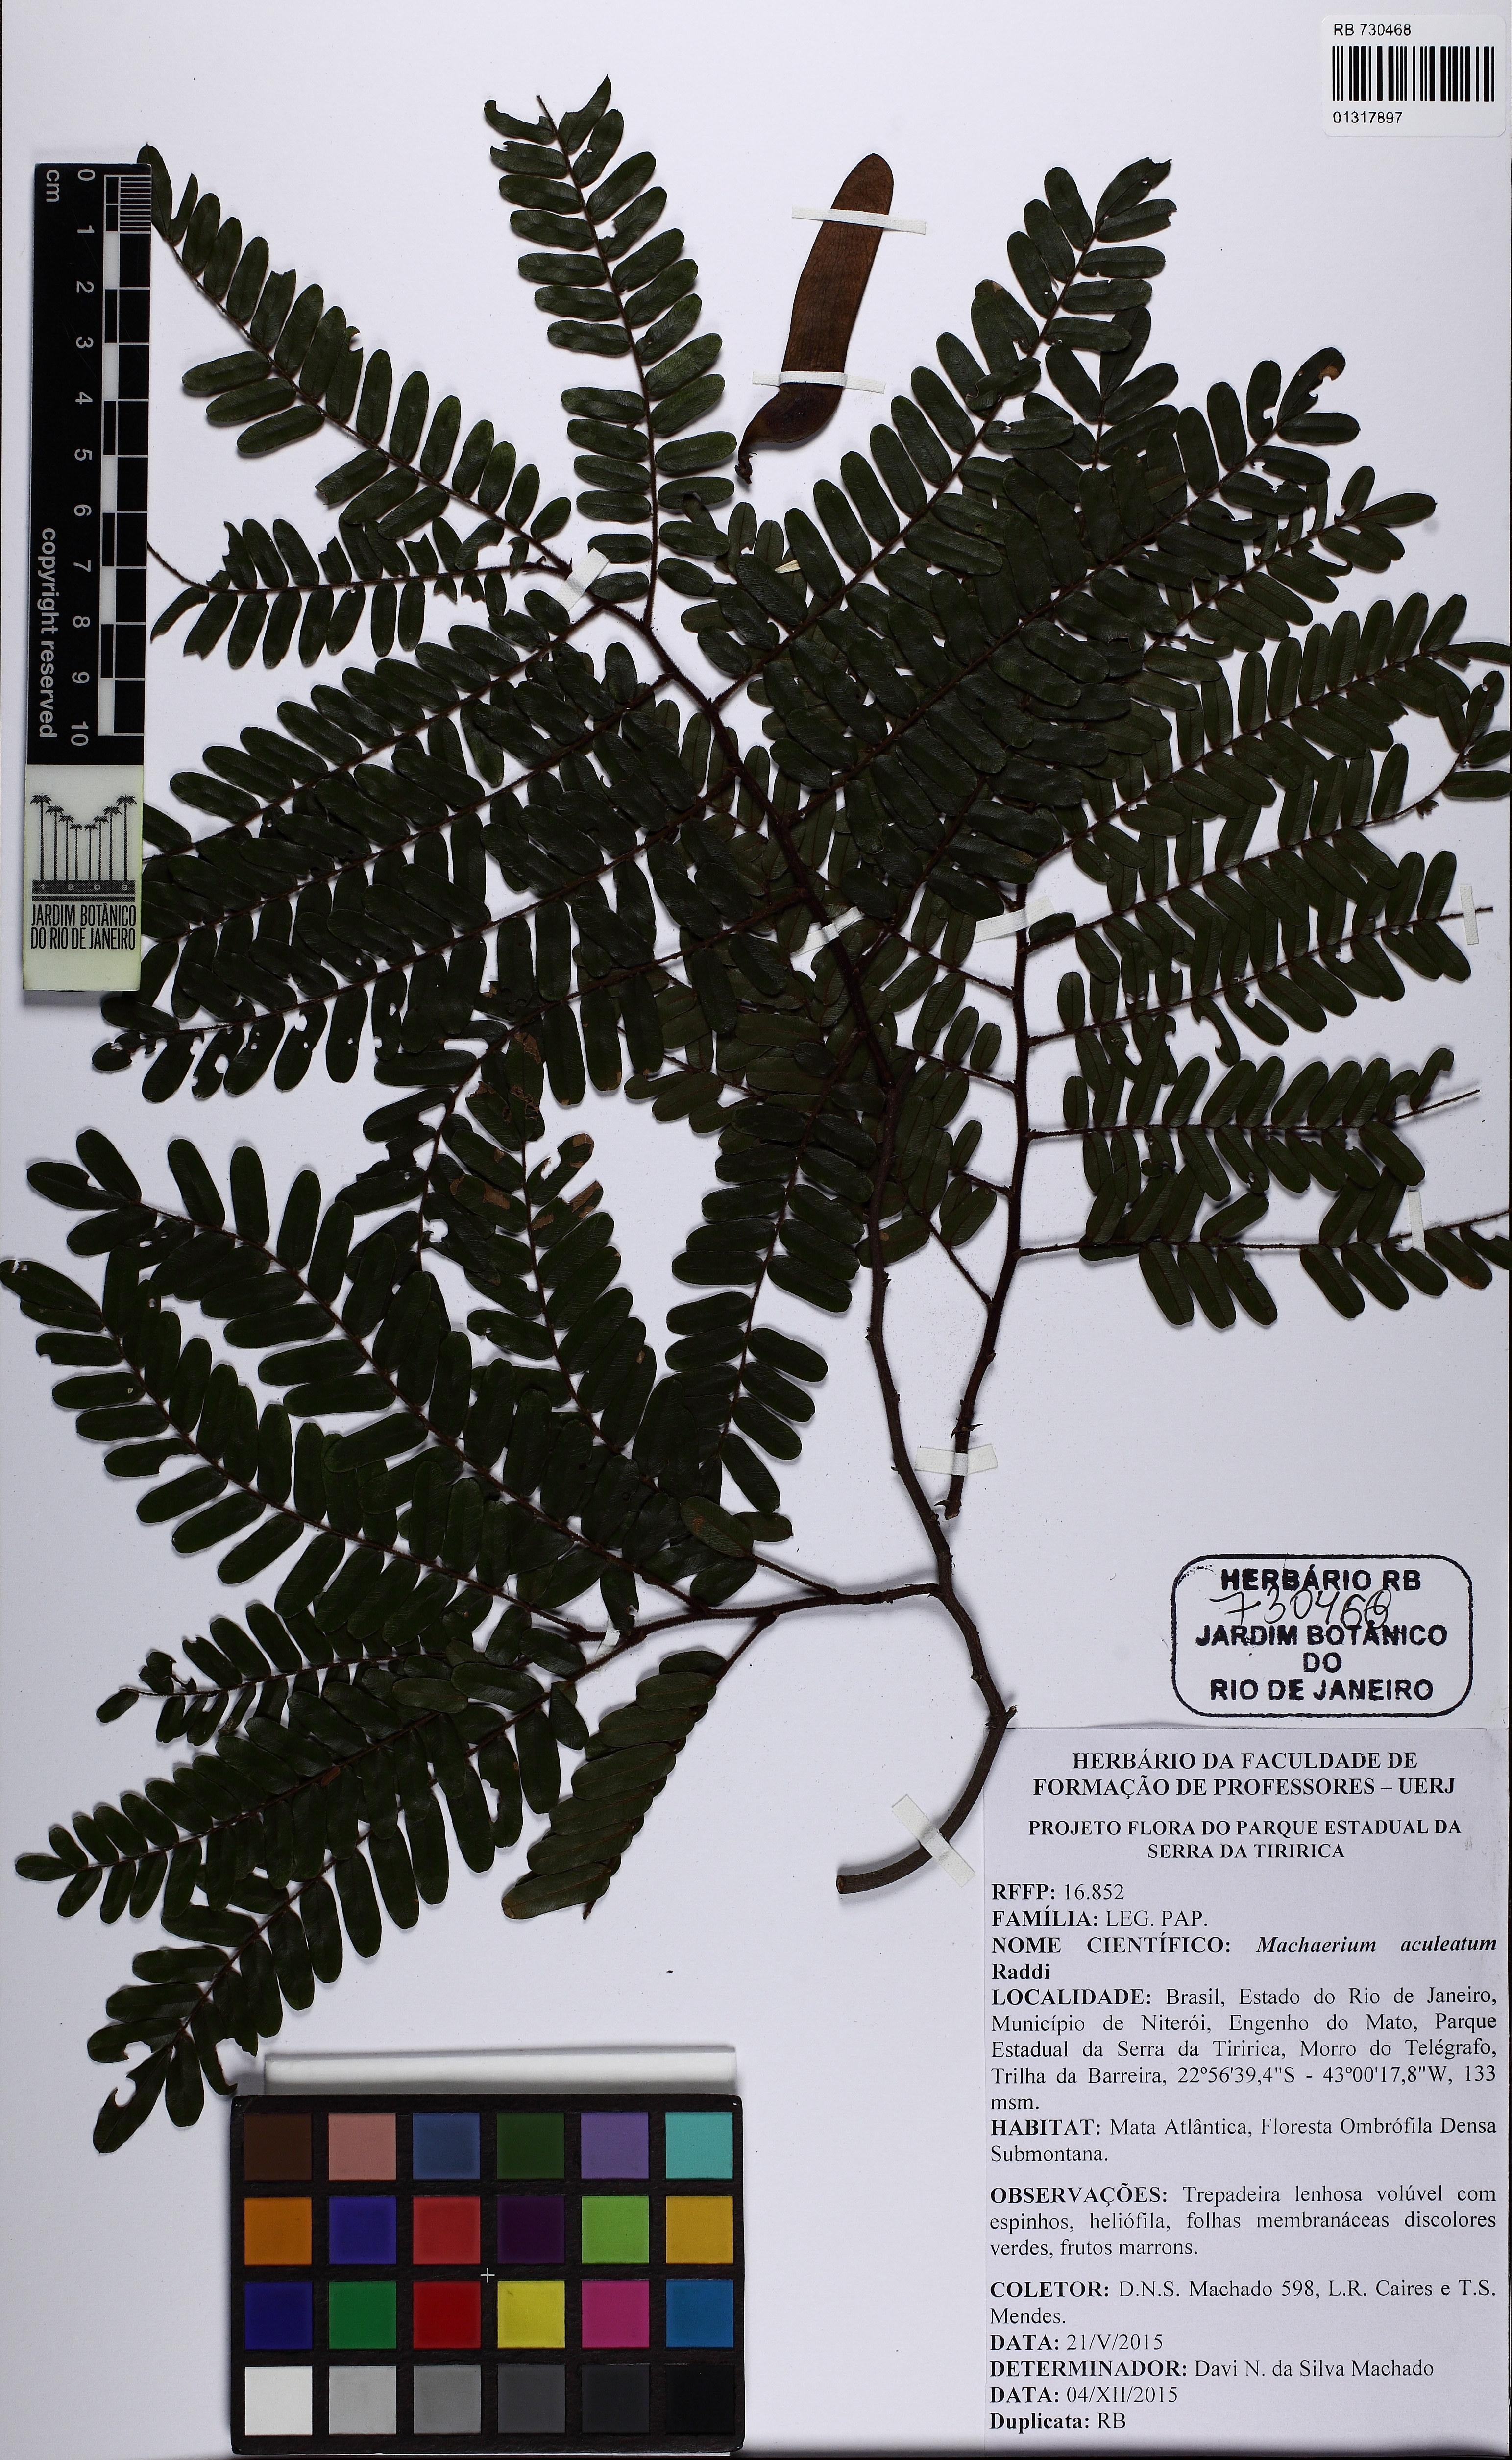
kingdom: Plantae
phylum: Tracheophyta
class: Magnoliopsida
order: Fabales
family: Fabaceae
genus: Machaerium
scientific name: Machaerium aculeatum
